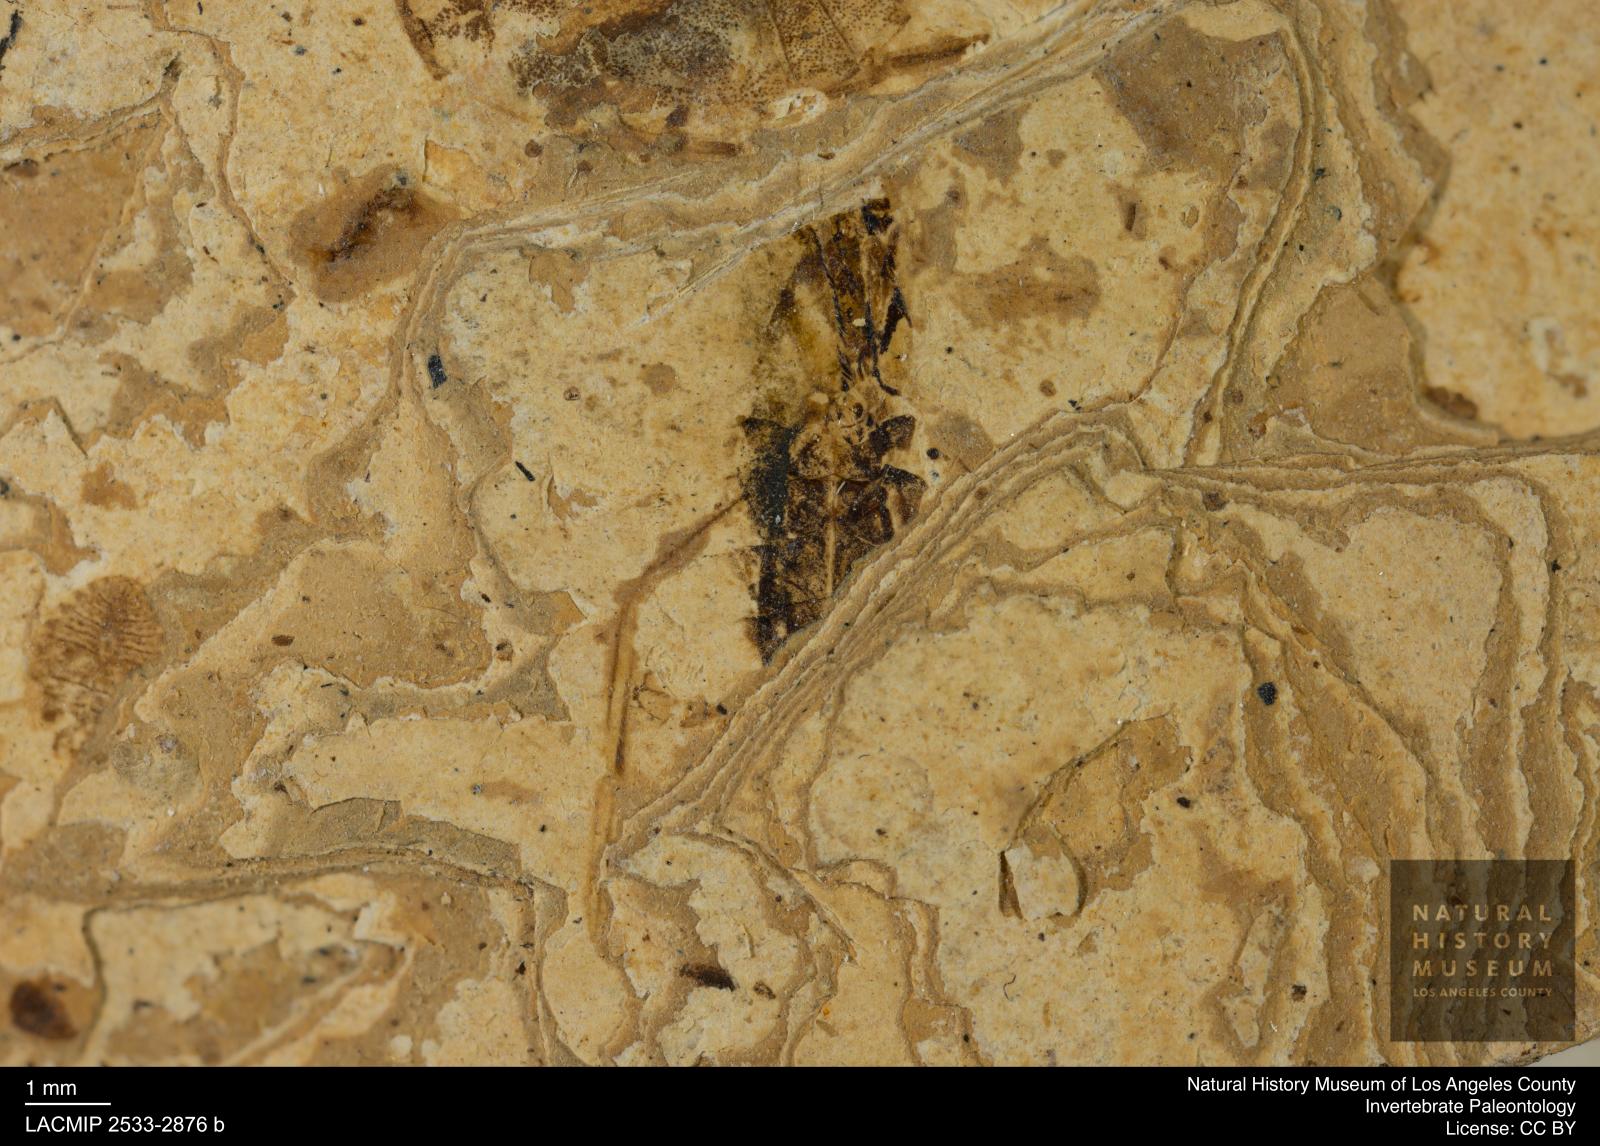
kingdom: Animalia
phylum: Arthropoda
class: Insecta
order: Hemiptera
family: Notonectidae
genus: Notonecta
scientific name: Notonecta
